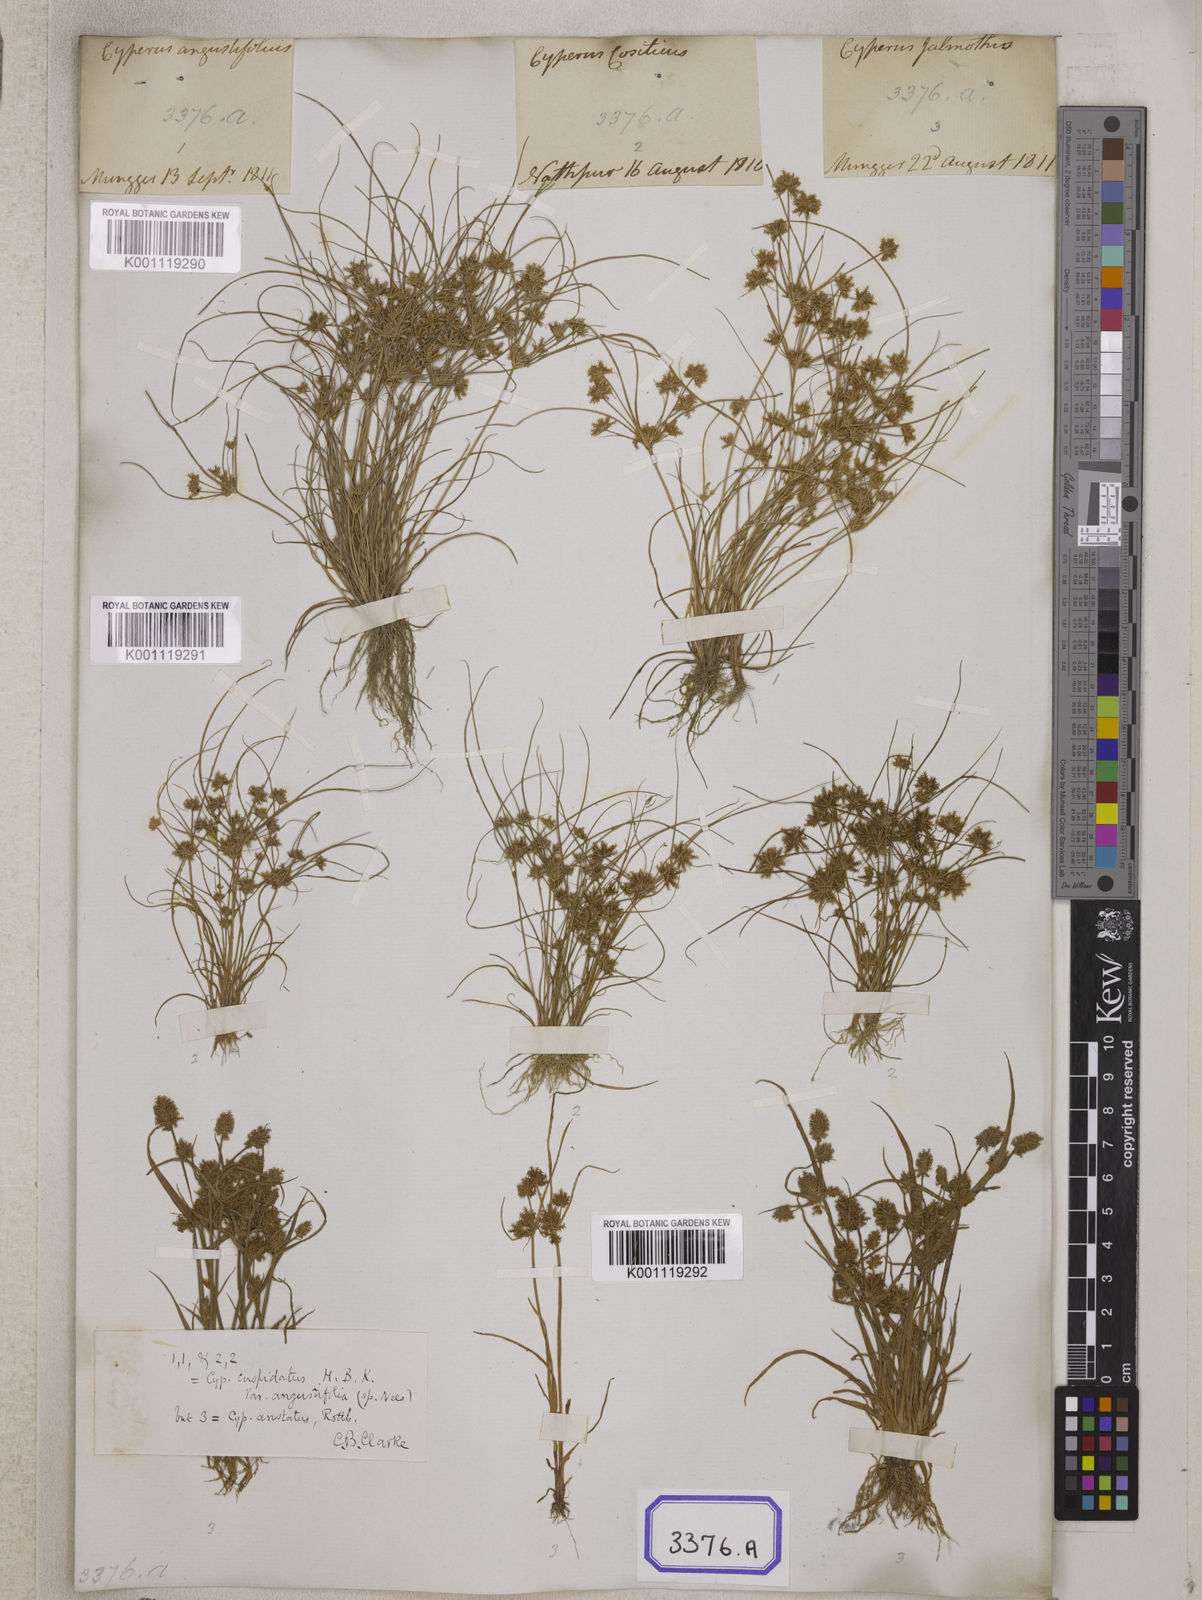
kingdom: Plantae
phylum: Tracheophyta
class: Liliopsida
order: Poales
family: Cyperaceae
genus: Cyperus
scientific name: Cyperus
